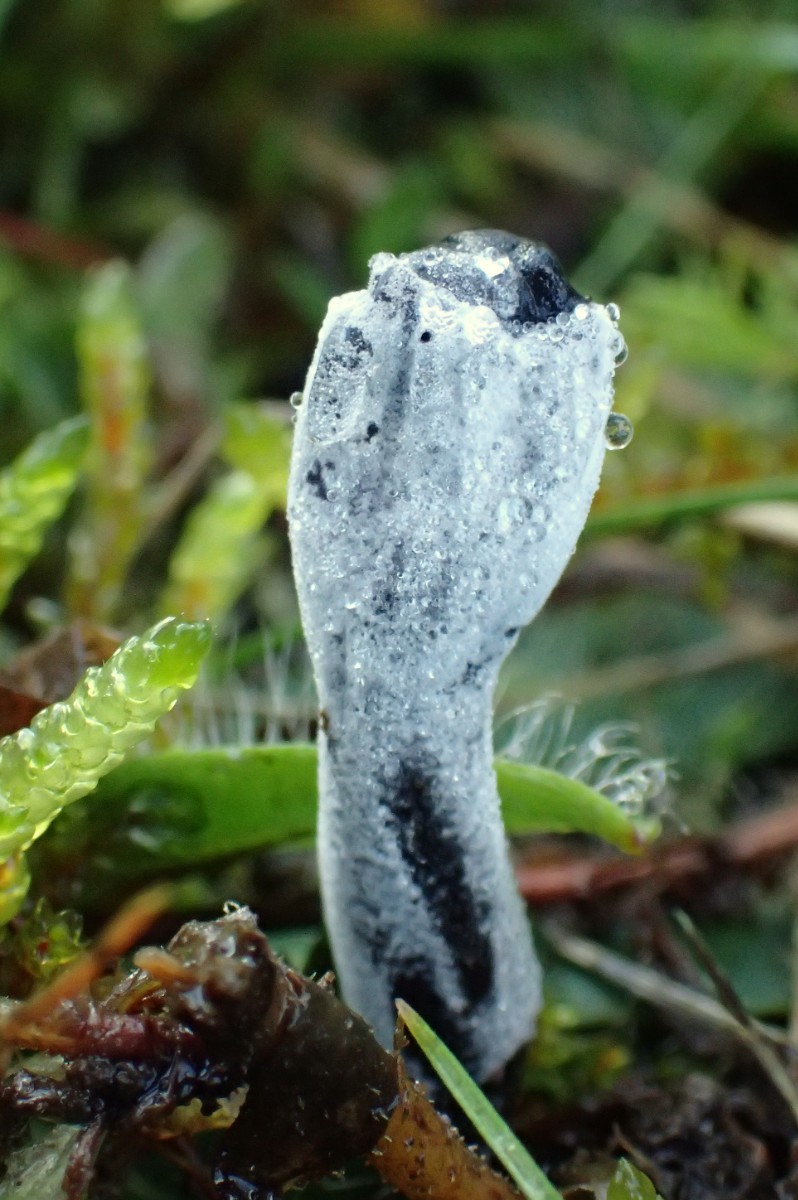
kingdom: Fungi
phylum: Ascomycota
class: Sordariomycetes
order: Hypocreales
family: Hypocreaceae
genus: Hypomyces
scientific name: Hypomyces papulasporae
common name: jordtunge-snylteskorpe
